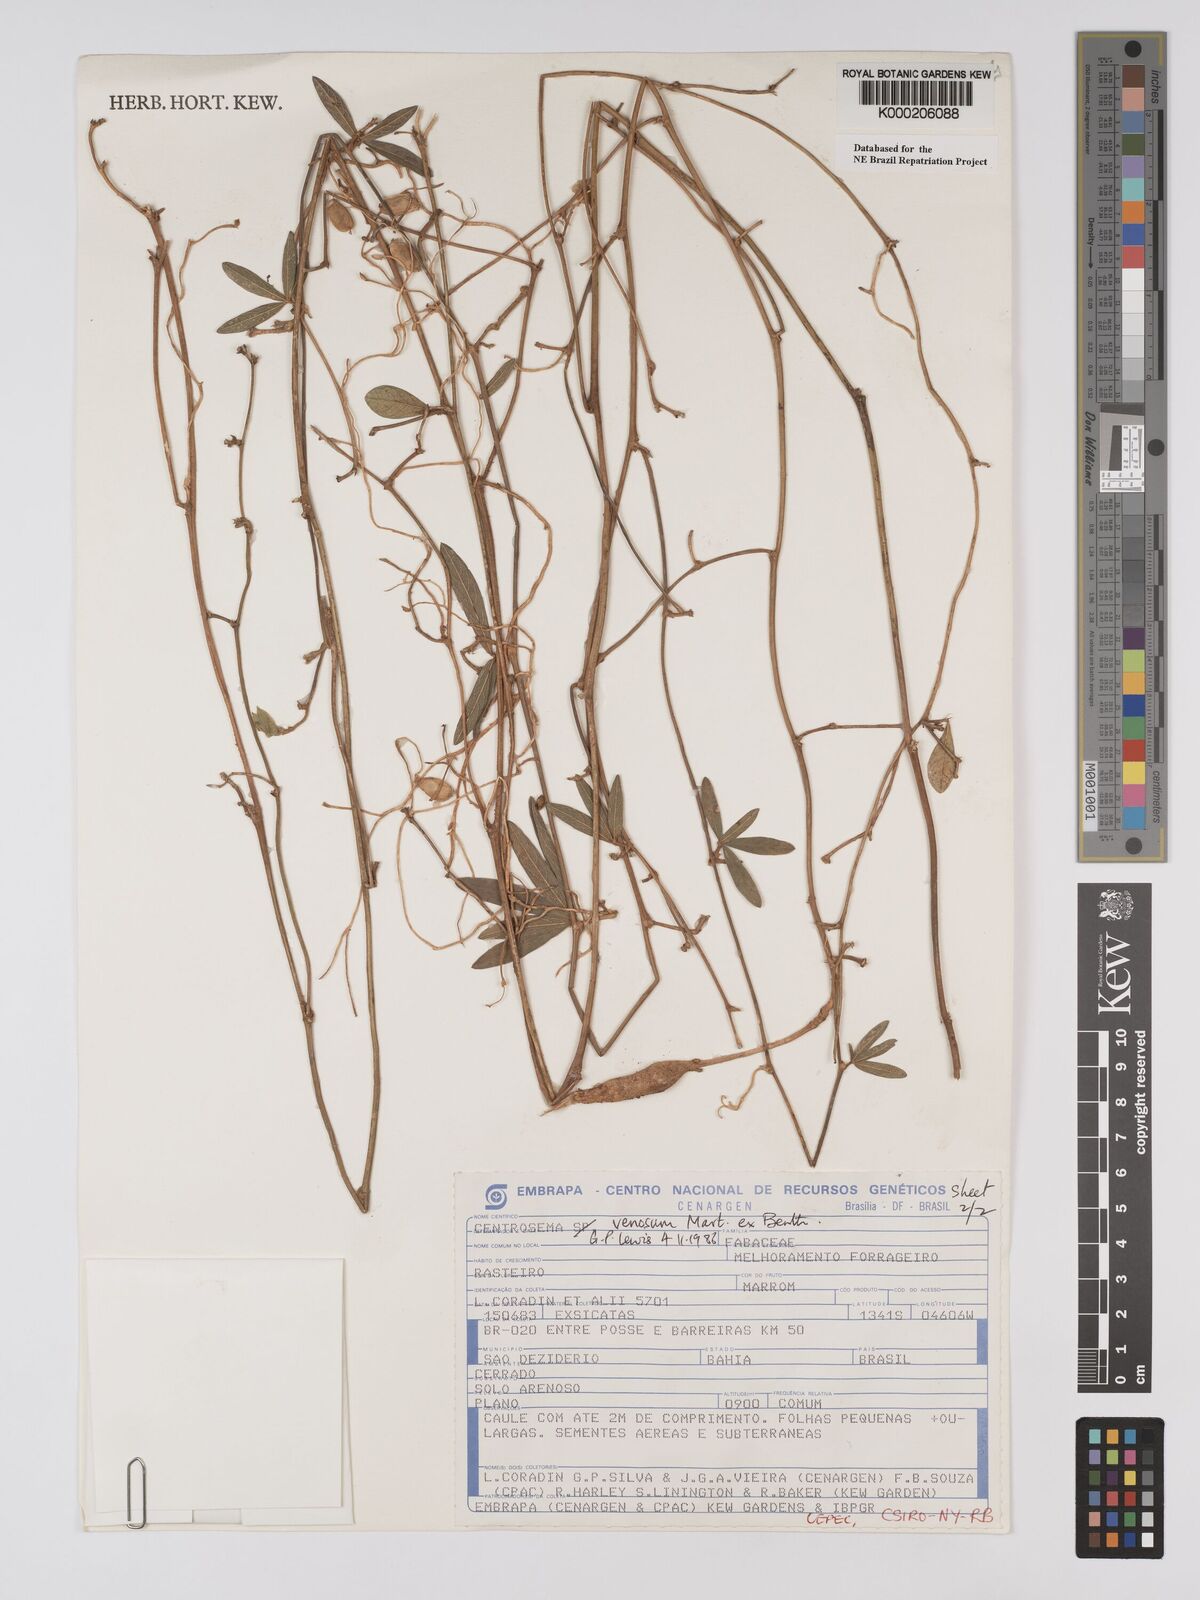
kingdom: Plantae
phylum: Tracheophyta
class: Magnoliopsida
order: Fabales
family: Fabaceae
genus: Centrosema
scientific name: Centrosema venosum
